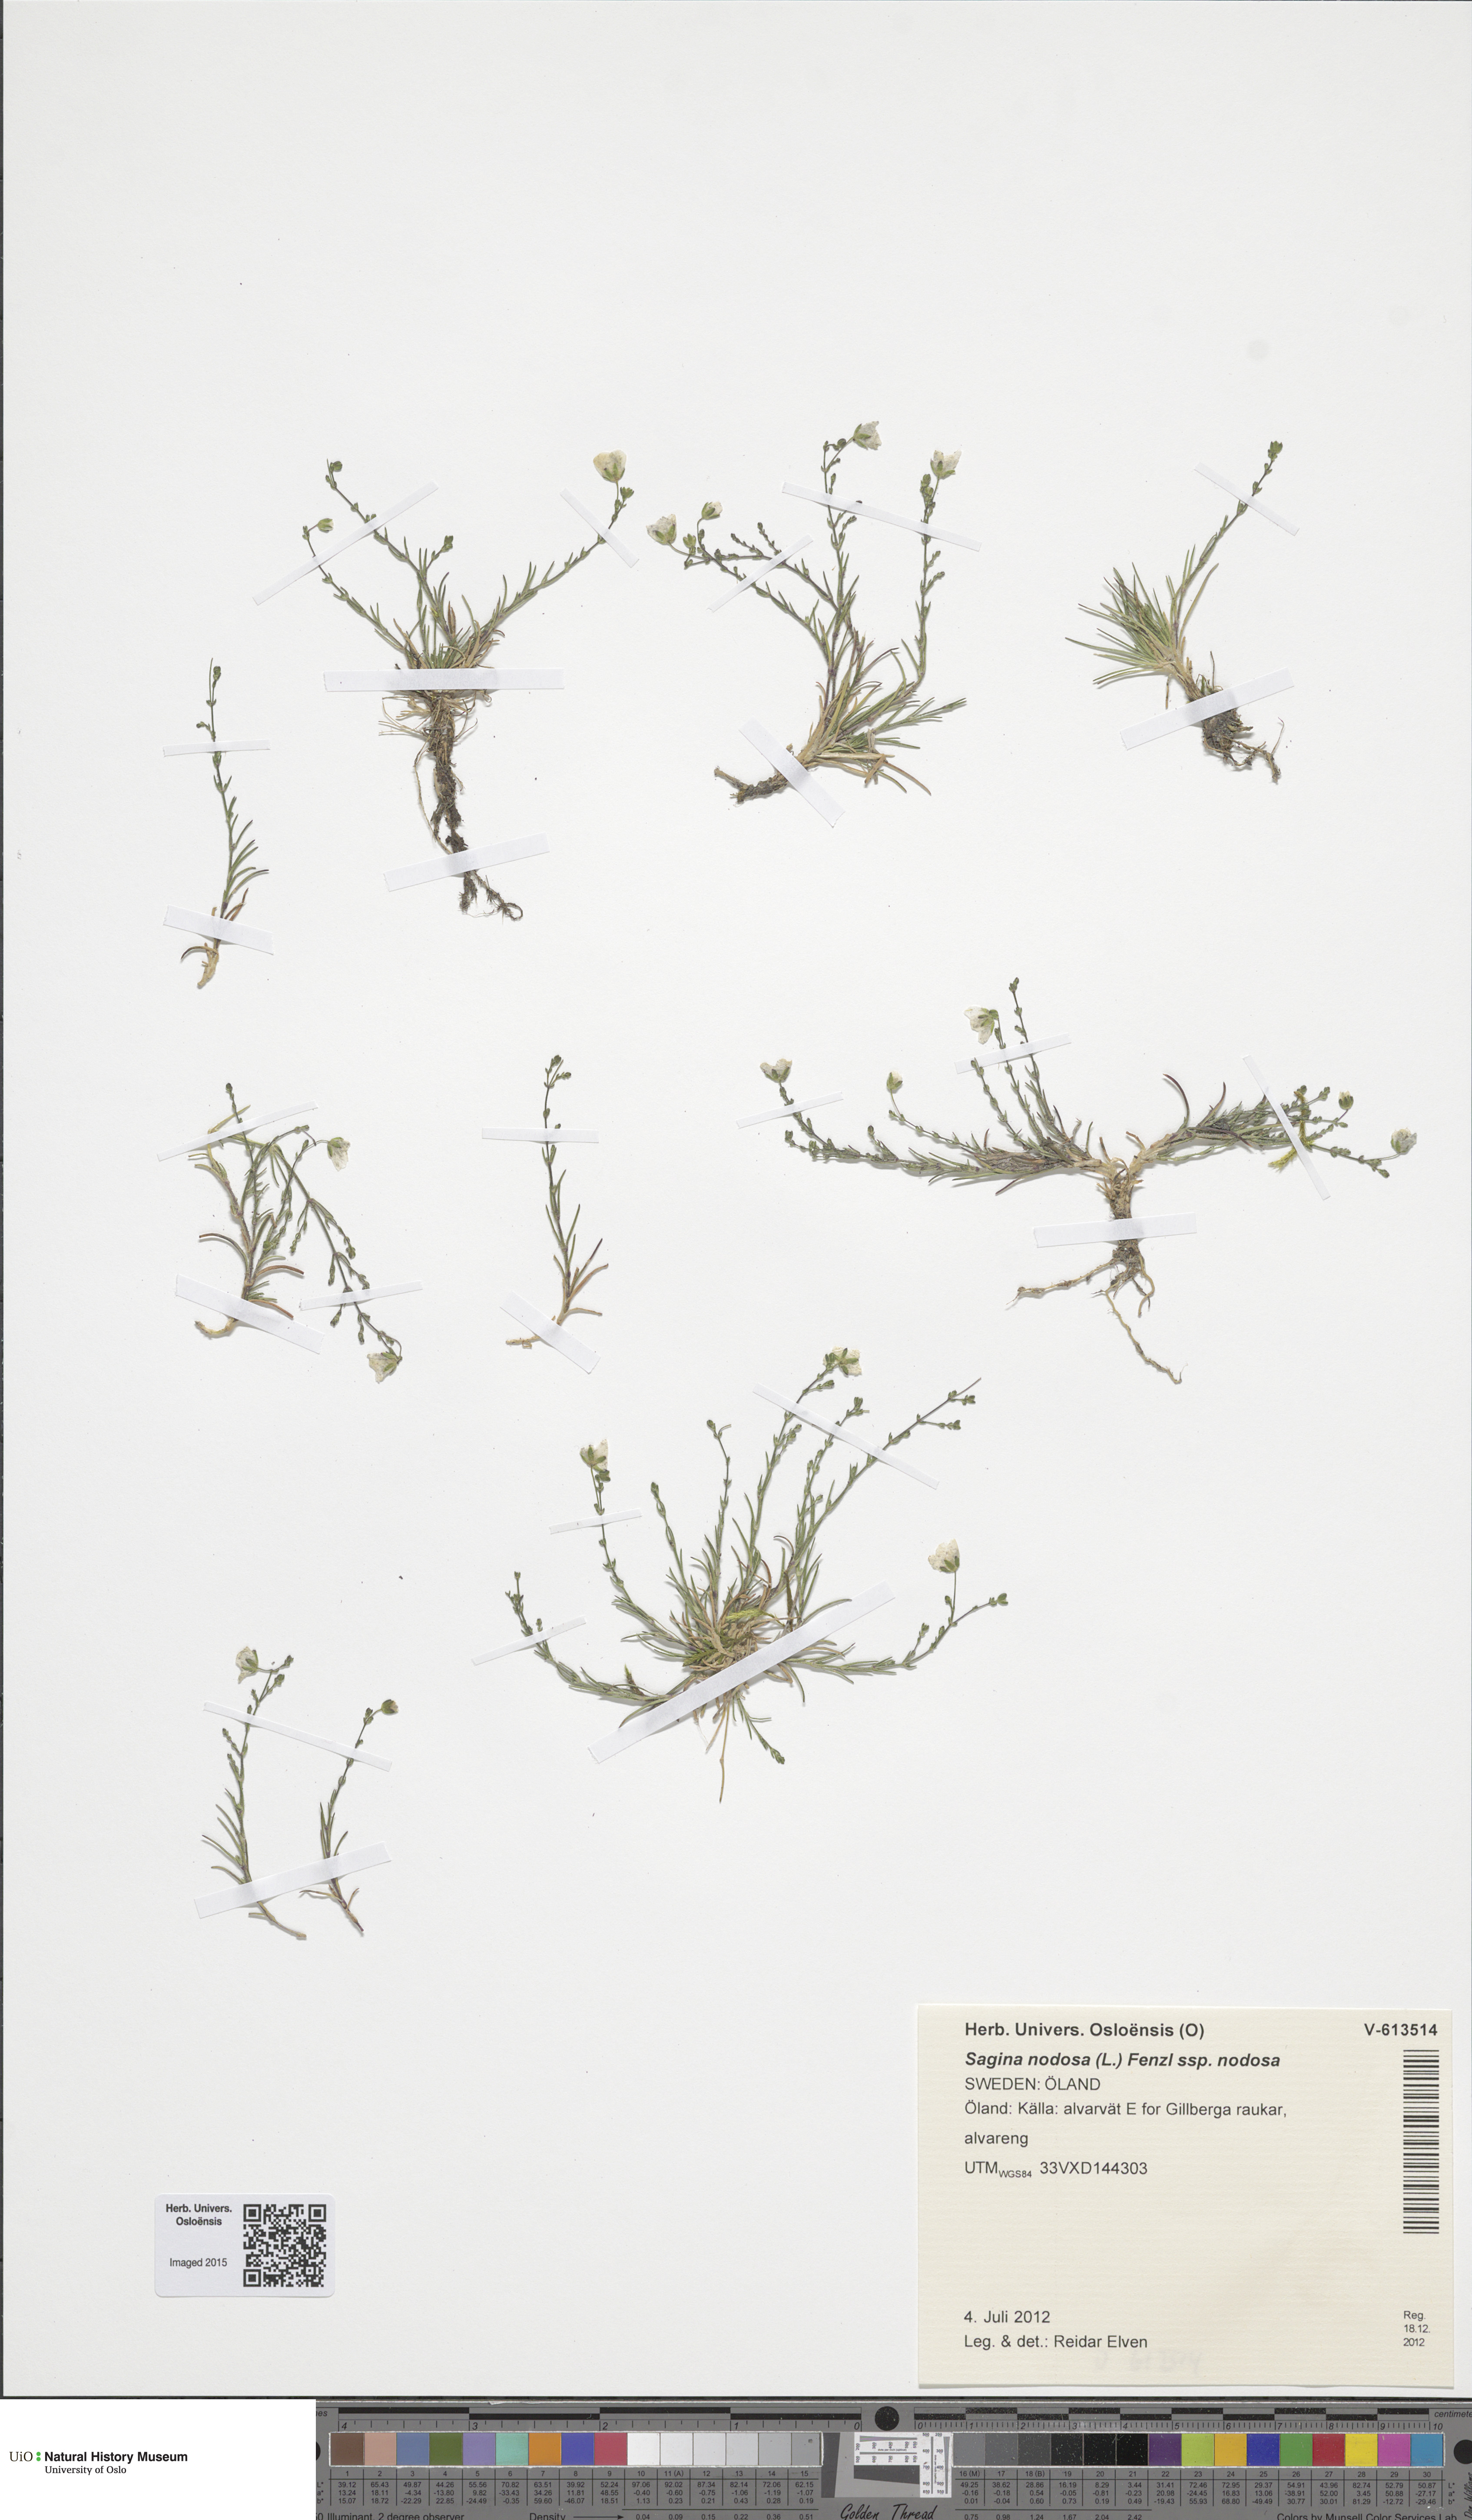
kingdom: Plantae
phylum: Tracheophyta
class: Magnoliopsida
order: Caryophyllales
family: Caryophyllaceae
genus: Sagina
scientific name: Sagina nodosa
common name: Knotted pearlwort
